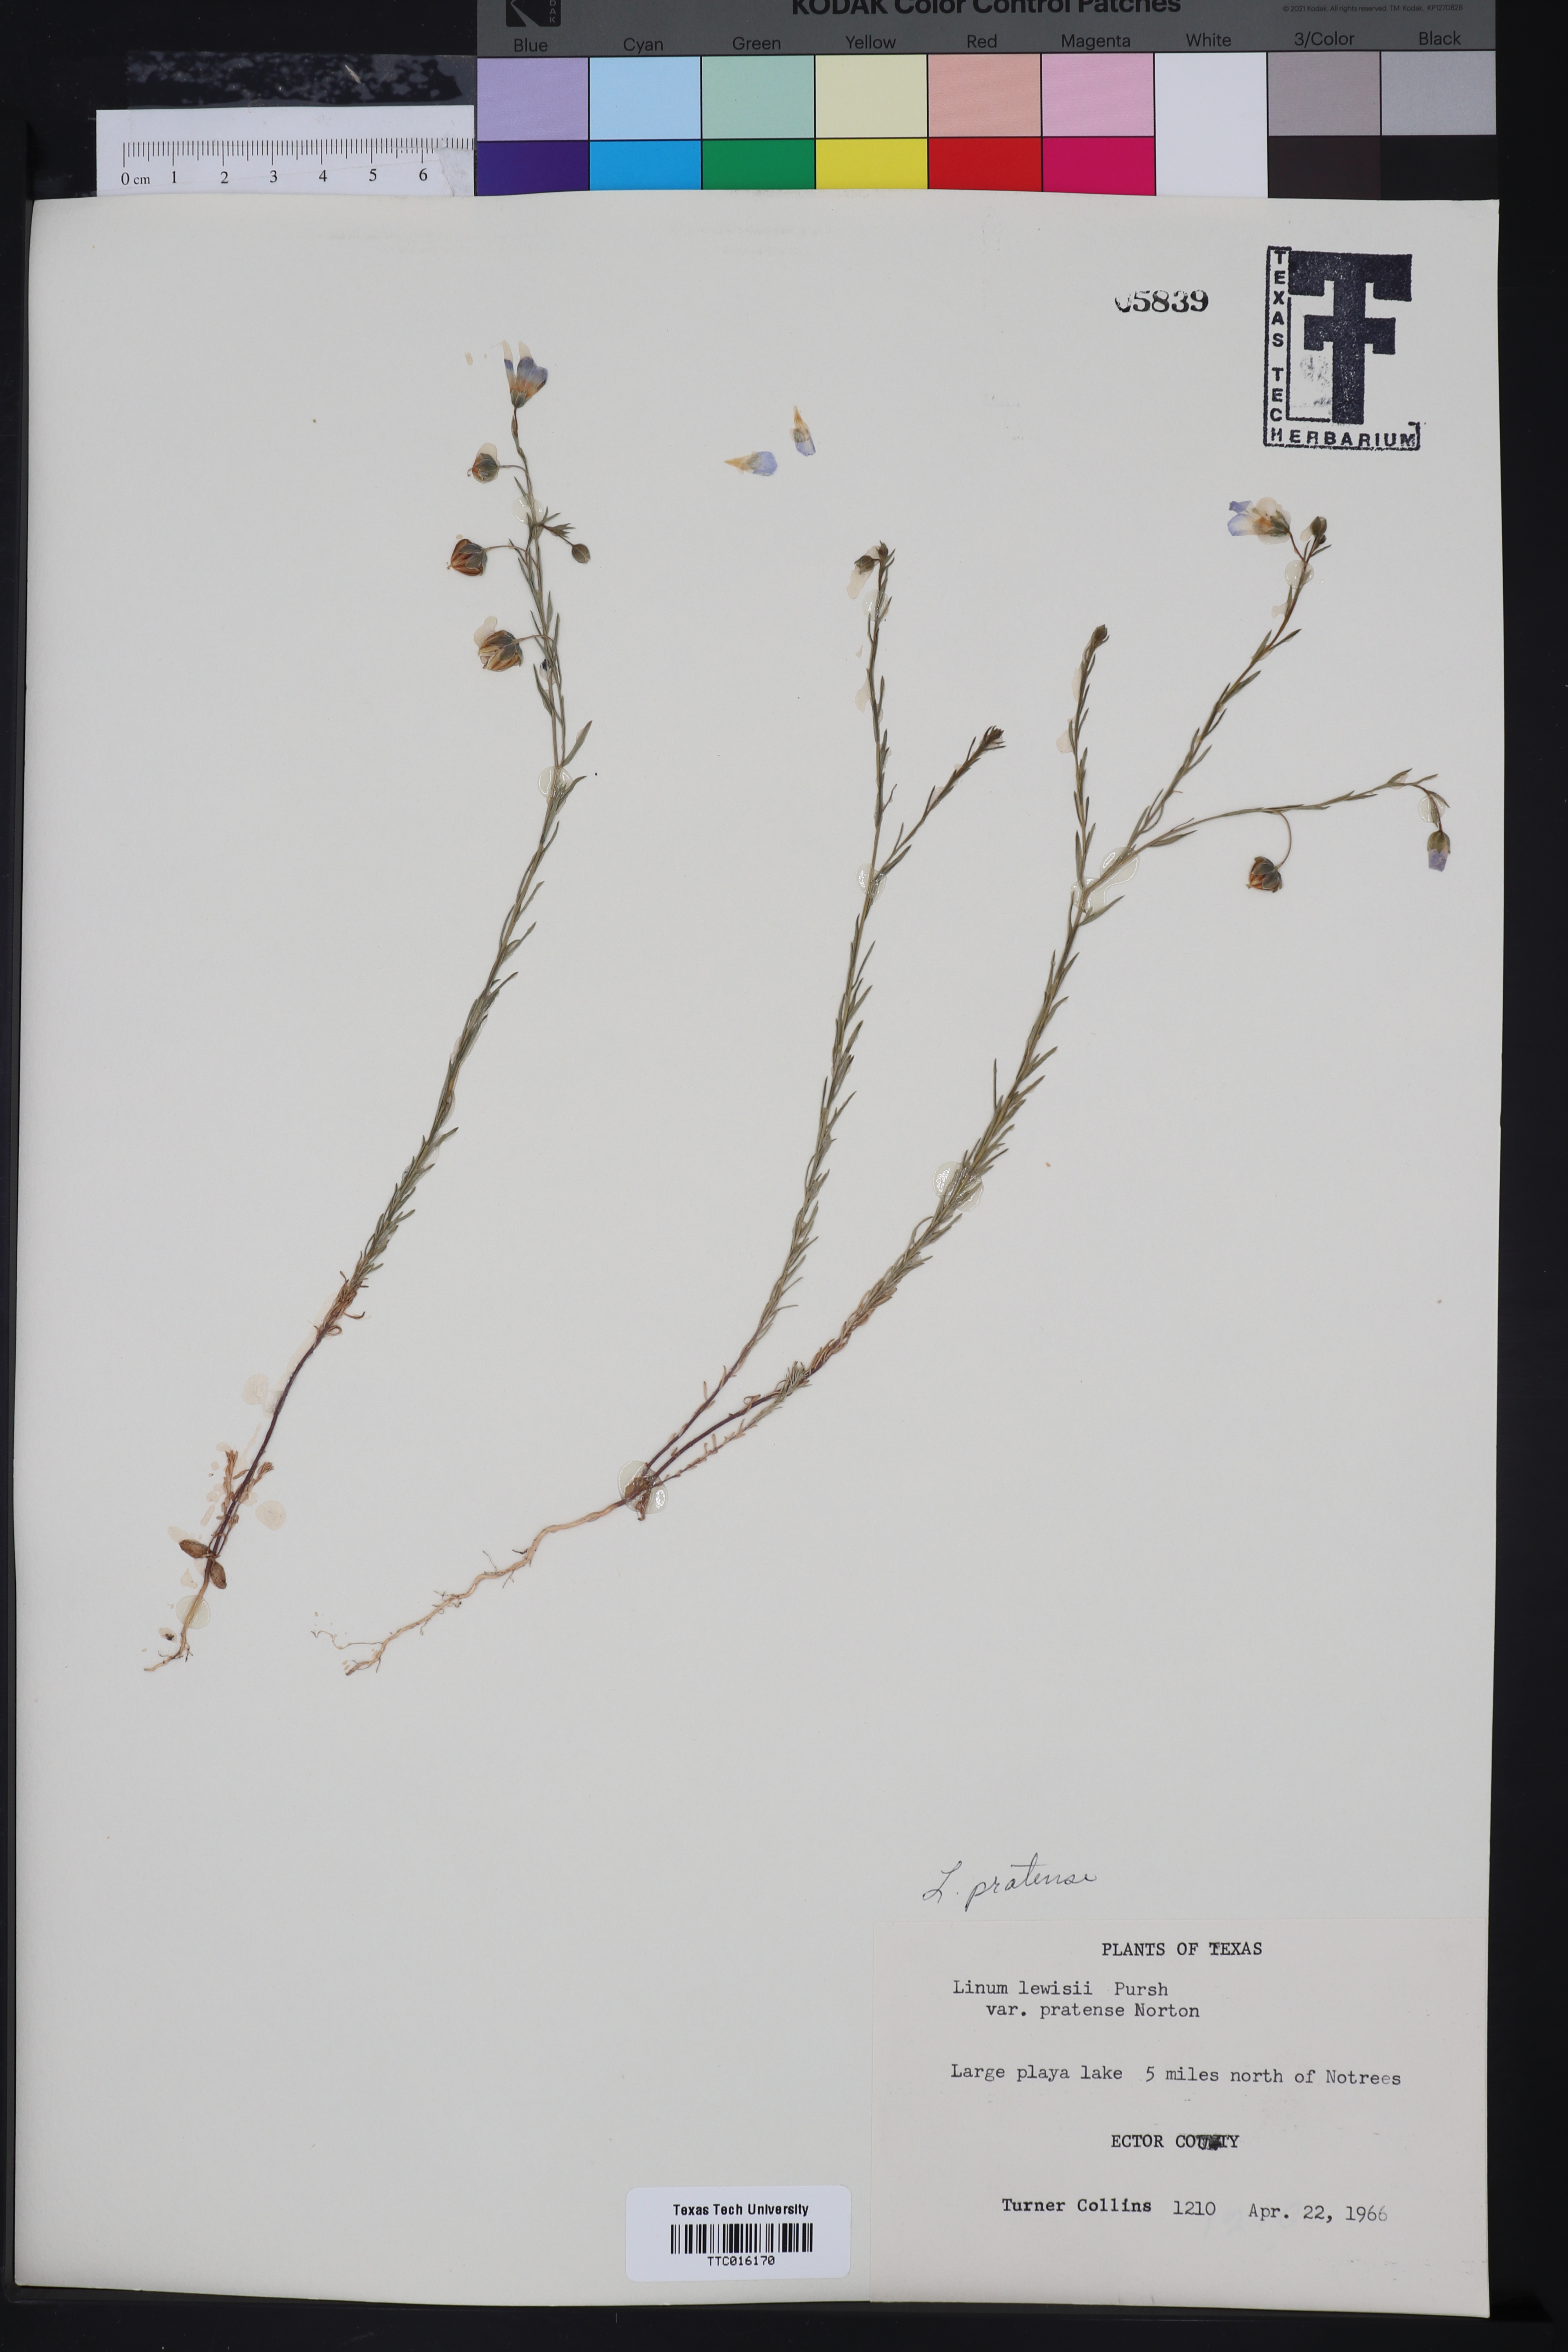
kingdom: Plantae
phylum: Tracheophyta
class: Magnoliopsida
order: Malpighiales
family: Linaceae
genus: Linum
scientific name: Linum pratense
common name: Norton's flax
